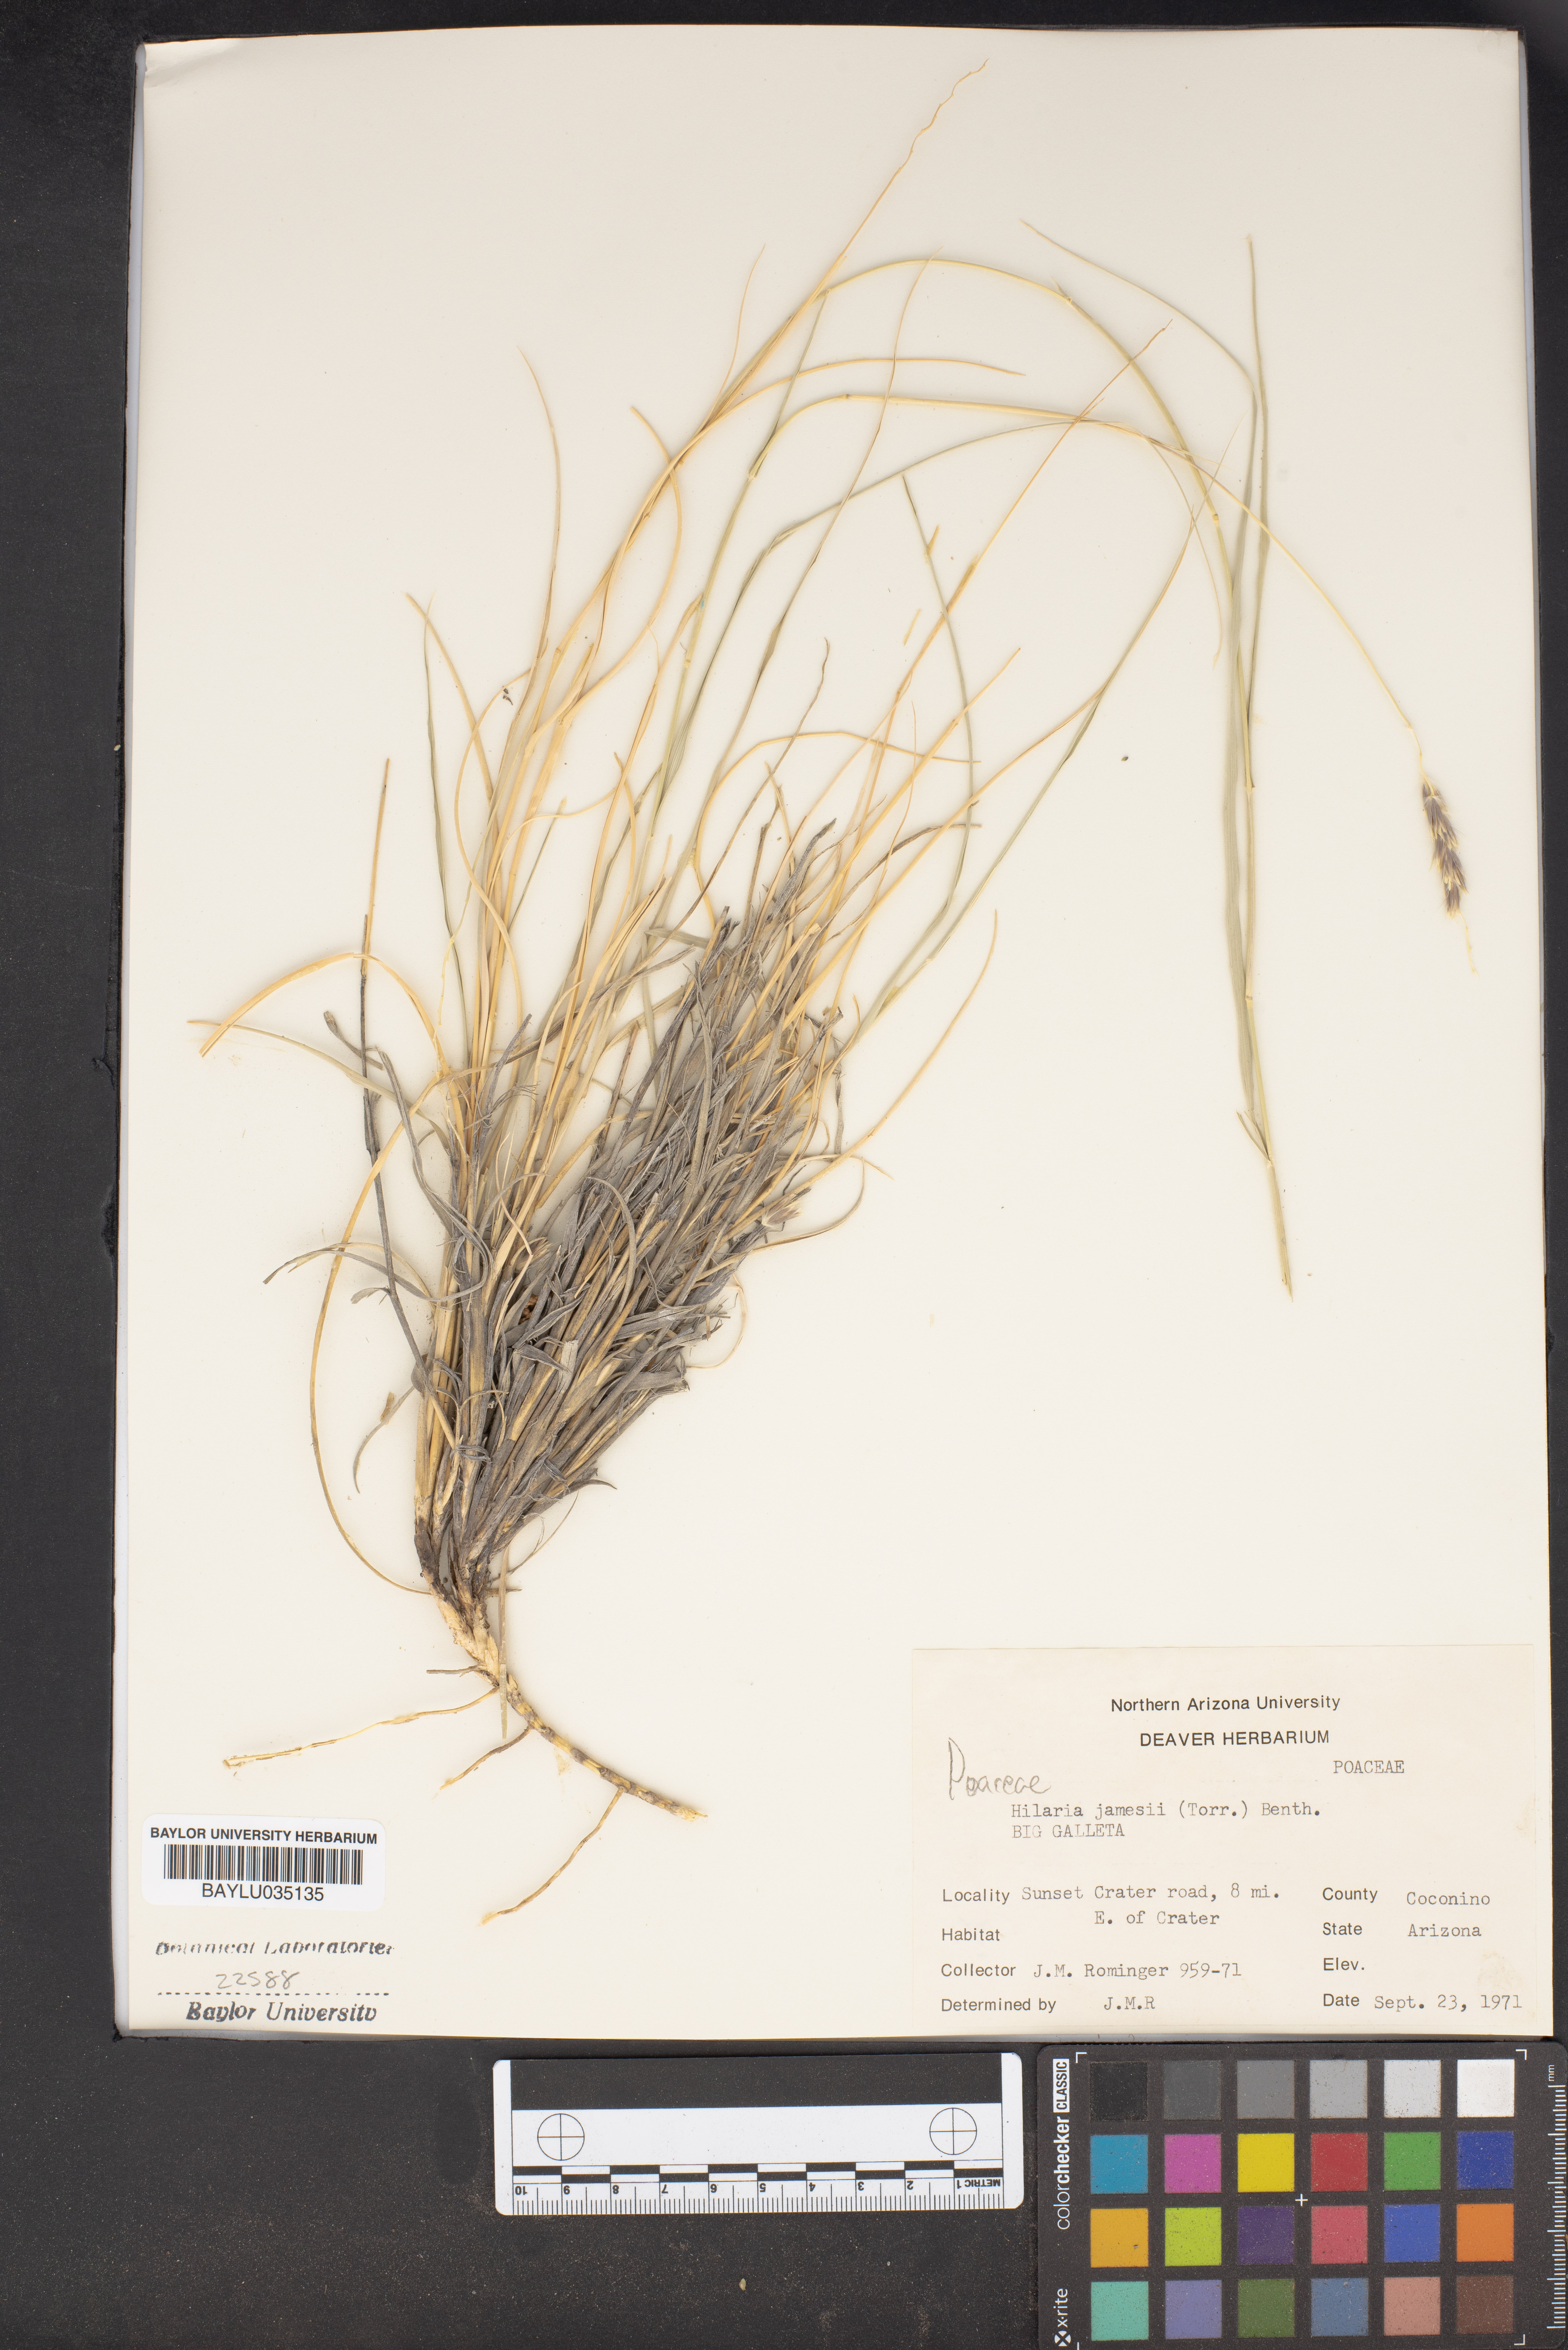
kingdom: Plantae
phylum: Tracheophyta
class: Liliopsida
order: Poales
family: Poaceae
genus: Hilaria
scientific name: Hilaria jamesii
